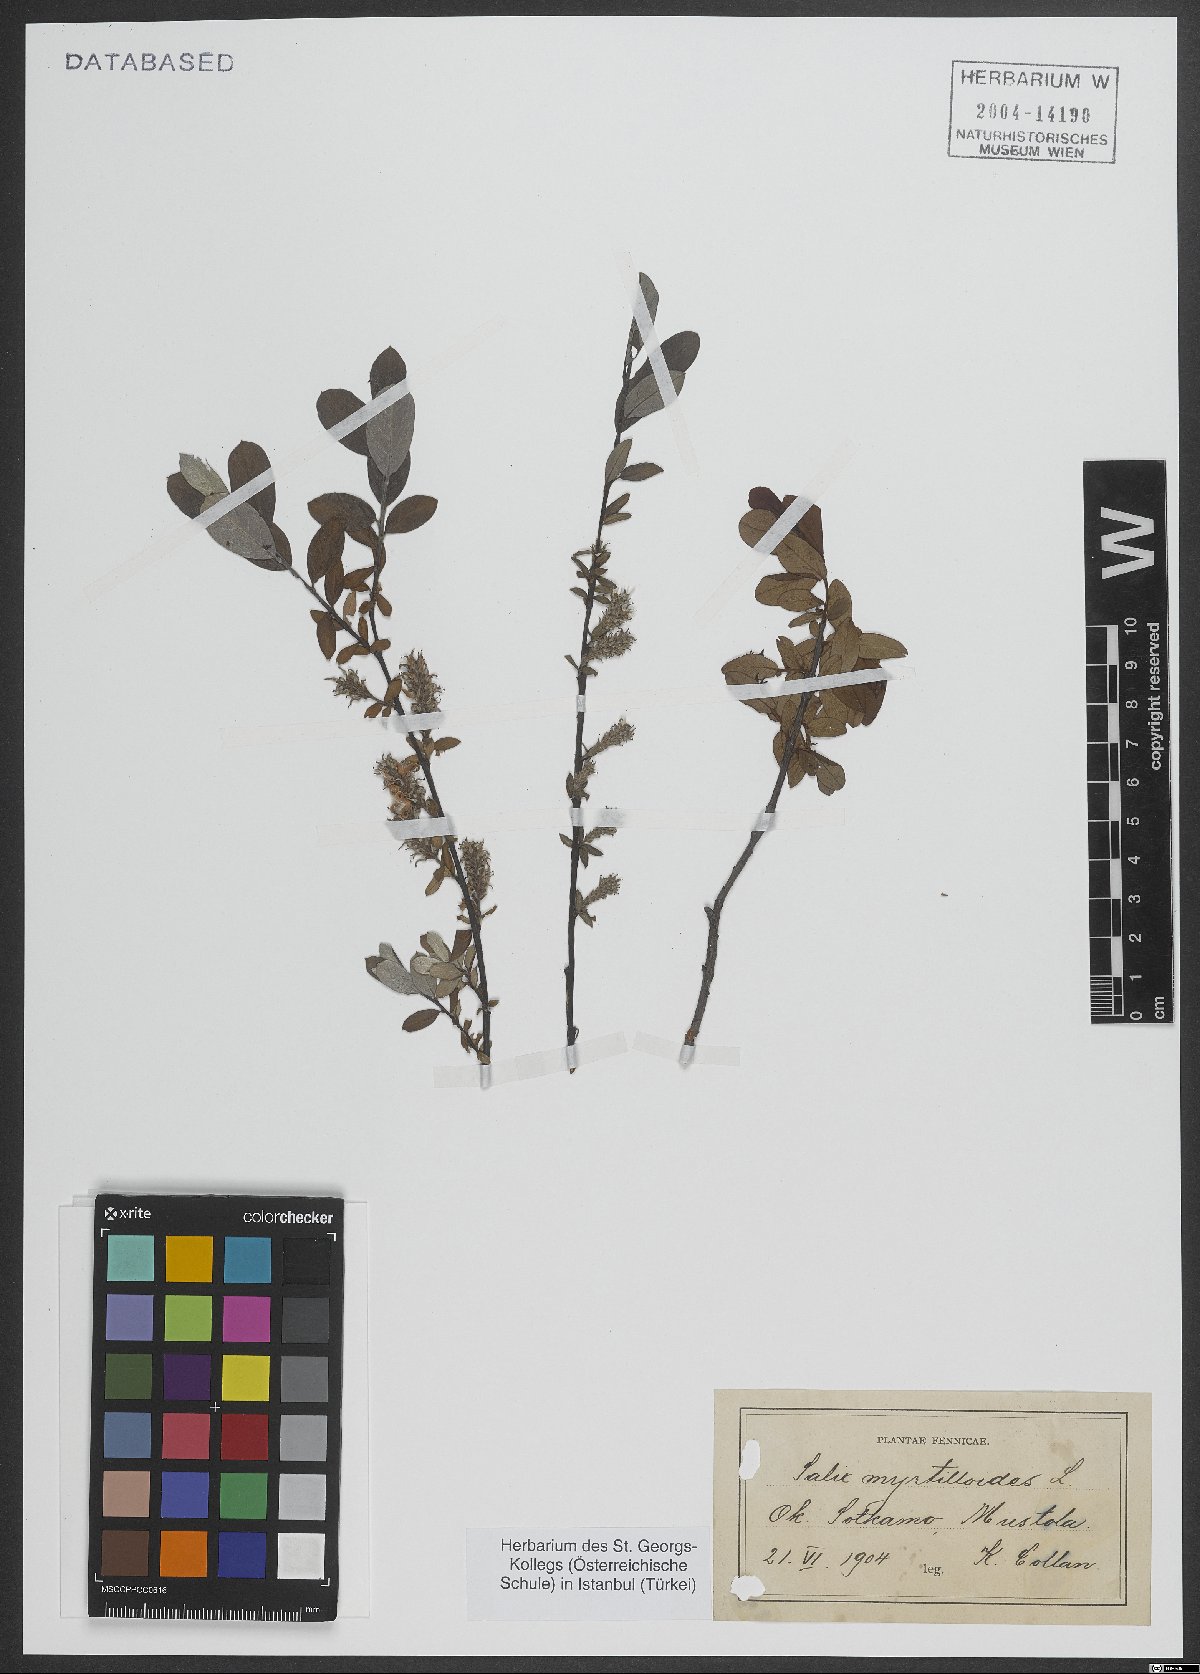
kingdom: Plantae
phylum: Tracheophyta
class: Magnoliopsida
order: Malpighiales
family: Salicaceae
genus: Salix
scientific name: Salix myrtilloides
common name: Myrtle-leaved willow
